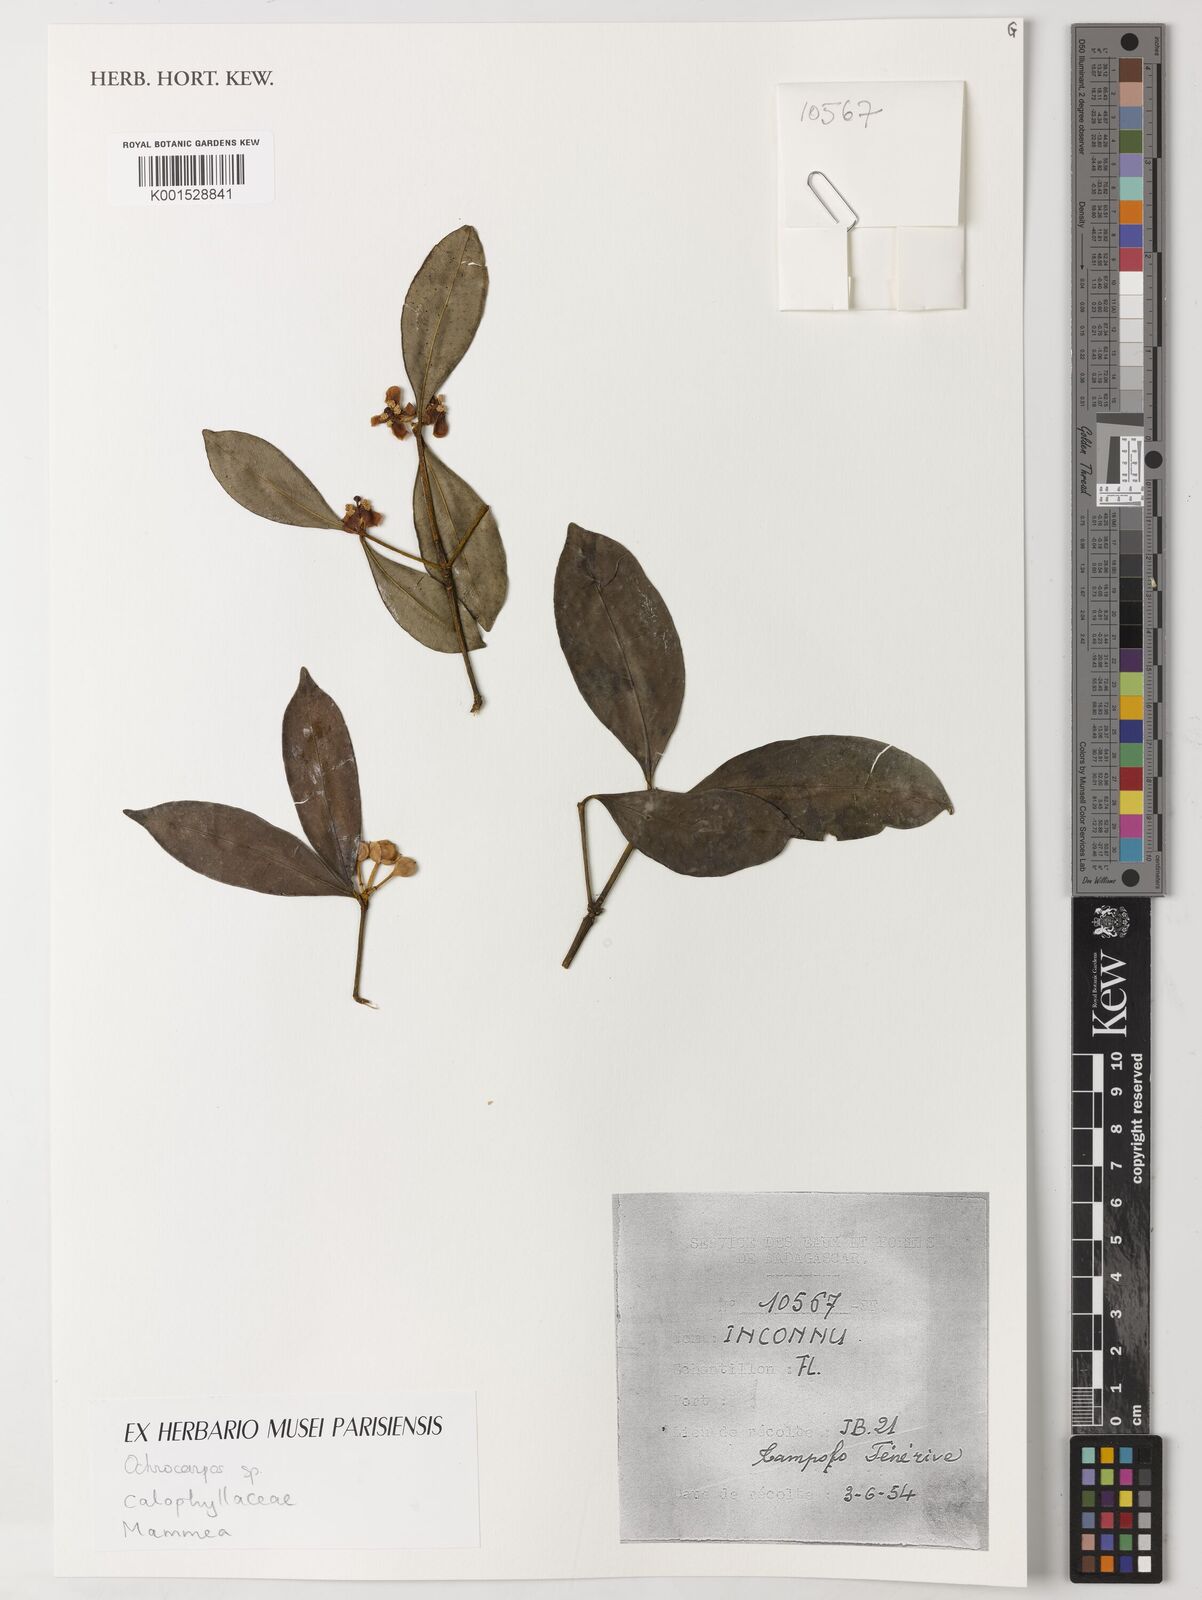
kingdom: Plantae
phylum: Tracheophyta
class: Magnoliopsida
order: Malpighiales
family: Calophyllaceae
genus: Mammea
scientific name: Mammea
